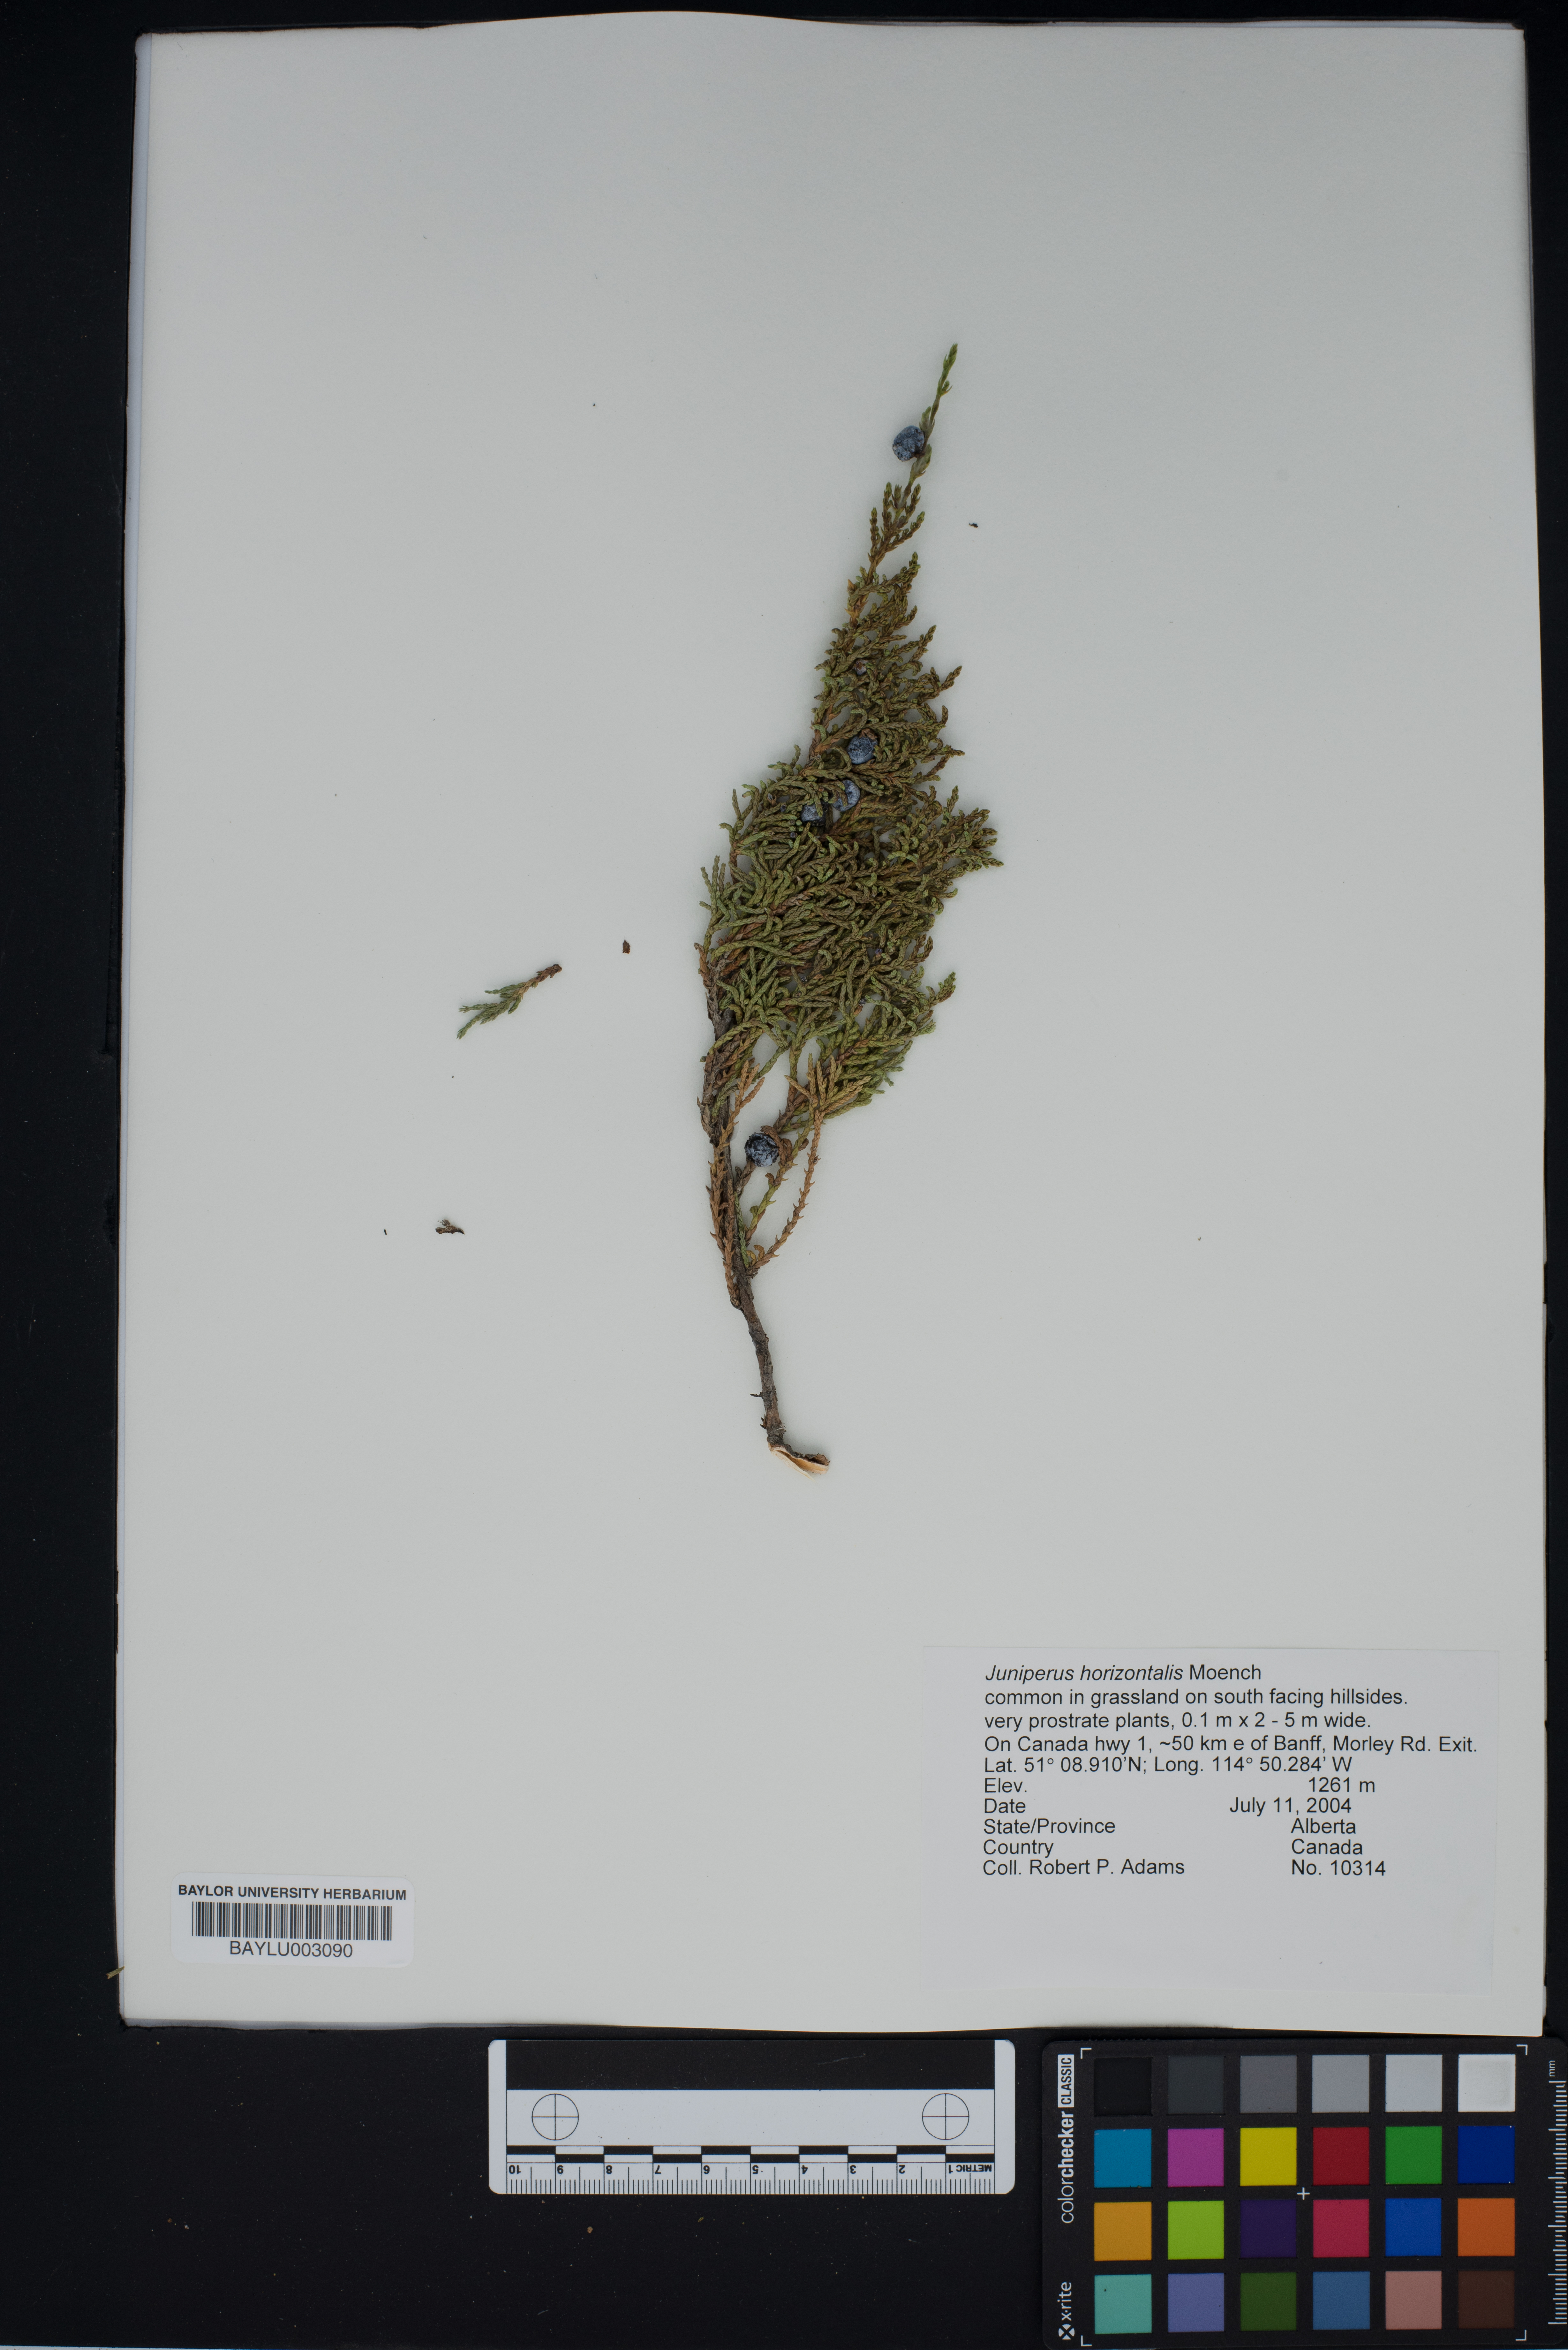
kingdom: Plantae
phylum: Tracheophyta
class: Pinopsida
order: Pinales
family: Cupressaceae
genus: Juniperus
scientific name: Juniperus horizontalis
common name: Creeping juniper
